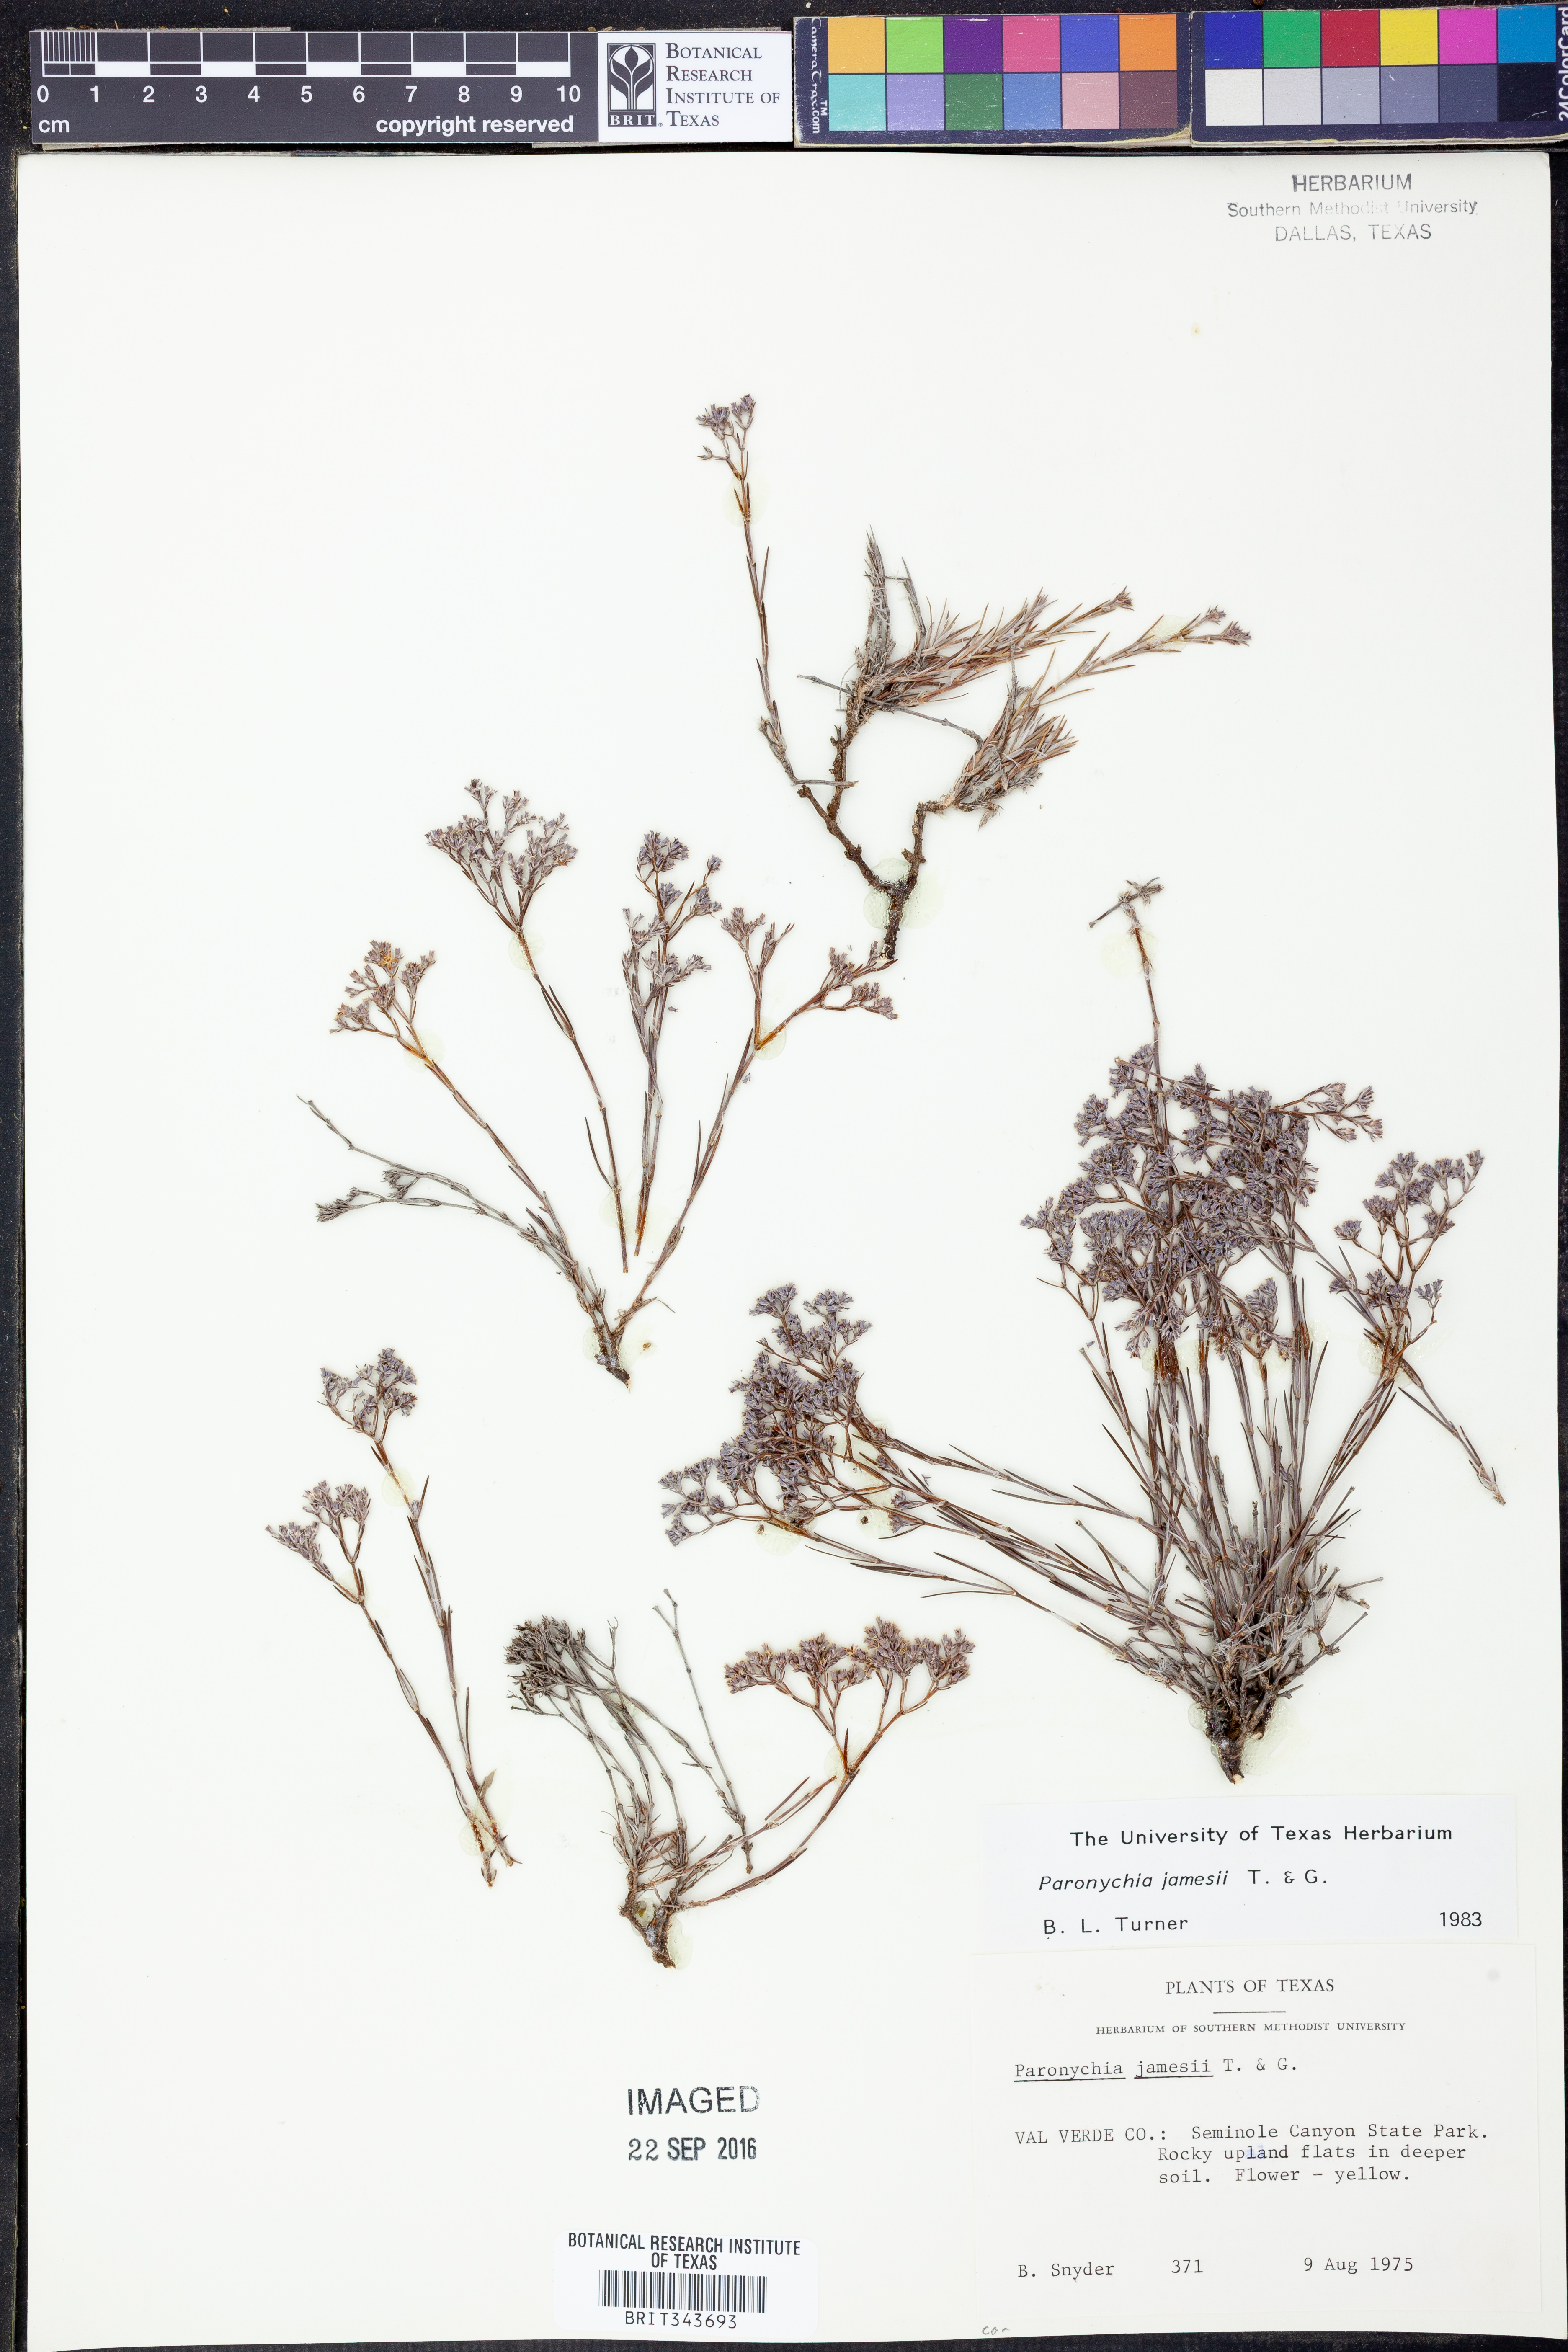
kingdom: Plantae
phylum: Tracheophyta
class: Magnoliopsida
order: Caryophyllales
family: Caryophyllaceae
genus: Paronychia
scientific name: Paronychia jamesii
